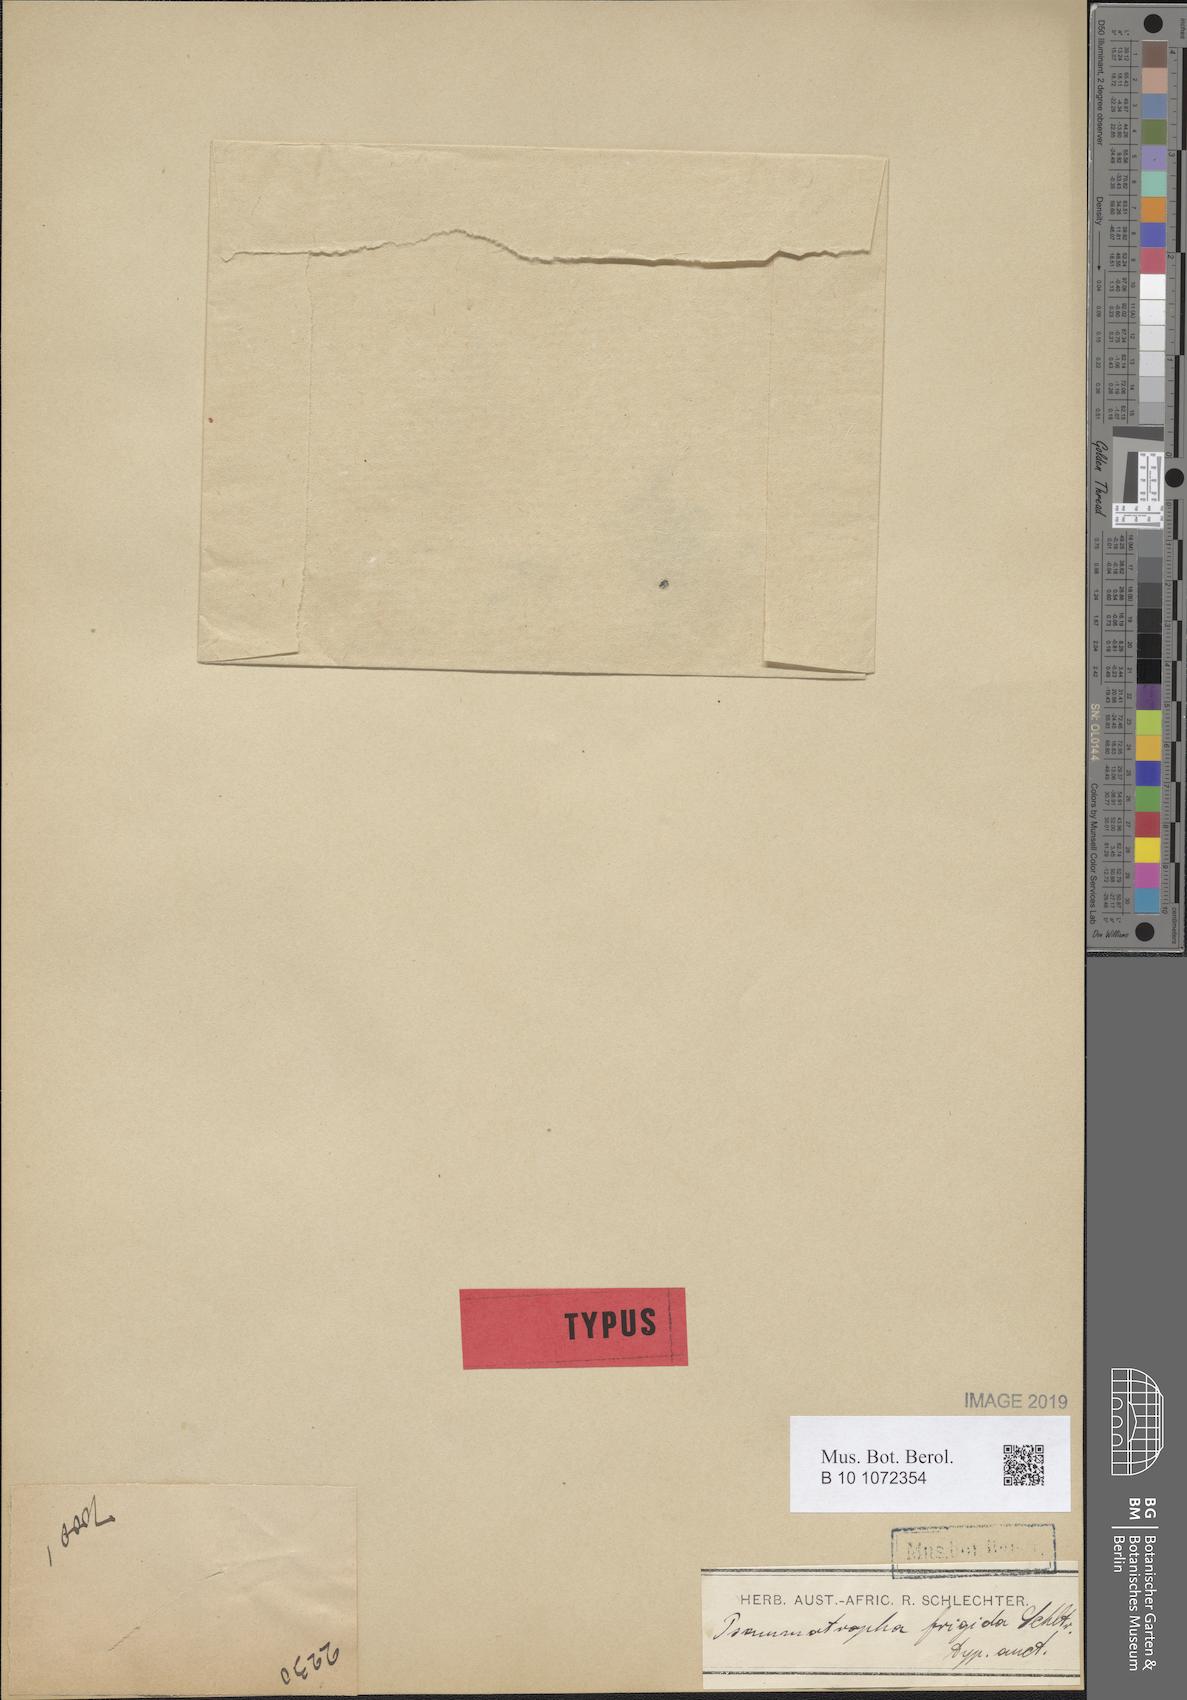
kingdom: Plantae
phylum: Tracheophyta
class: Magnoliopsida
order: Caryophyllales
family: Molluginaceae
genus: Psammotropha
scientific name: Psammotropha frigida
